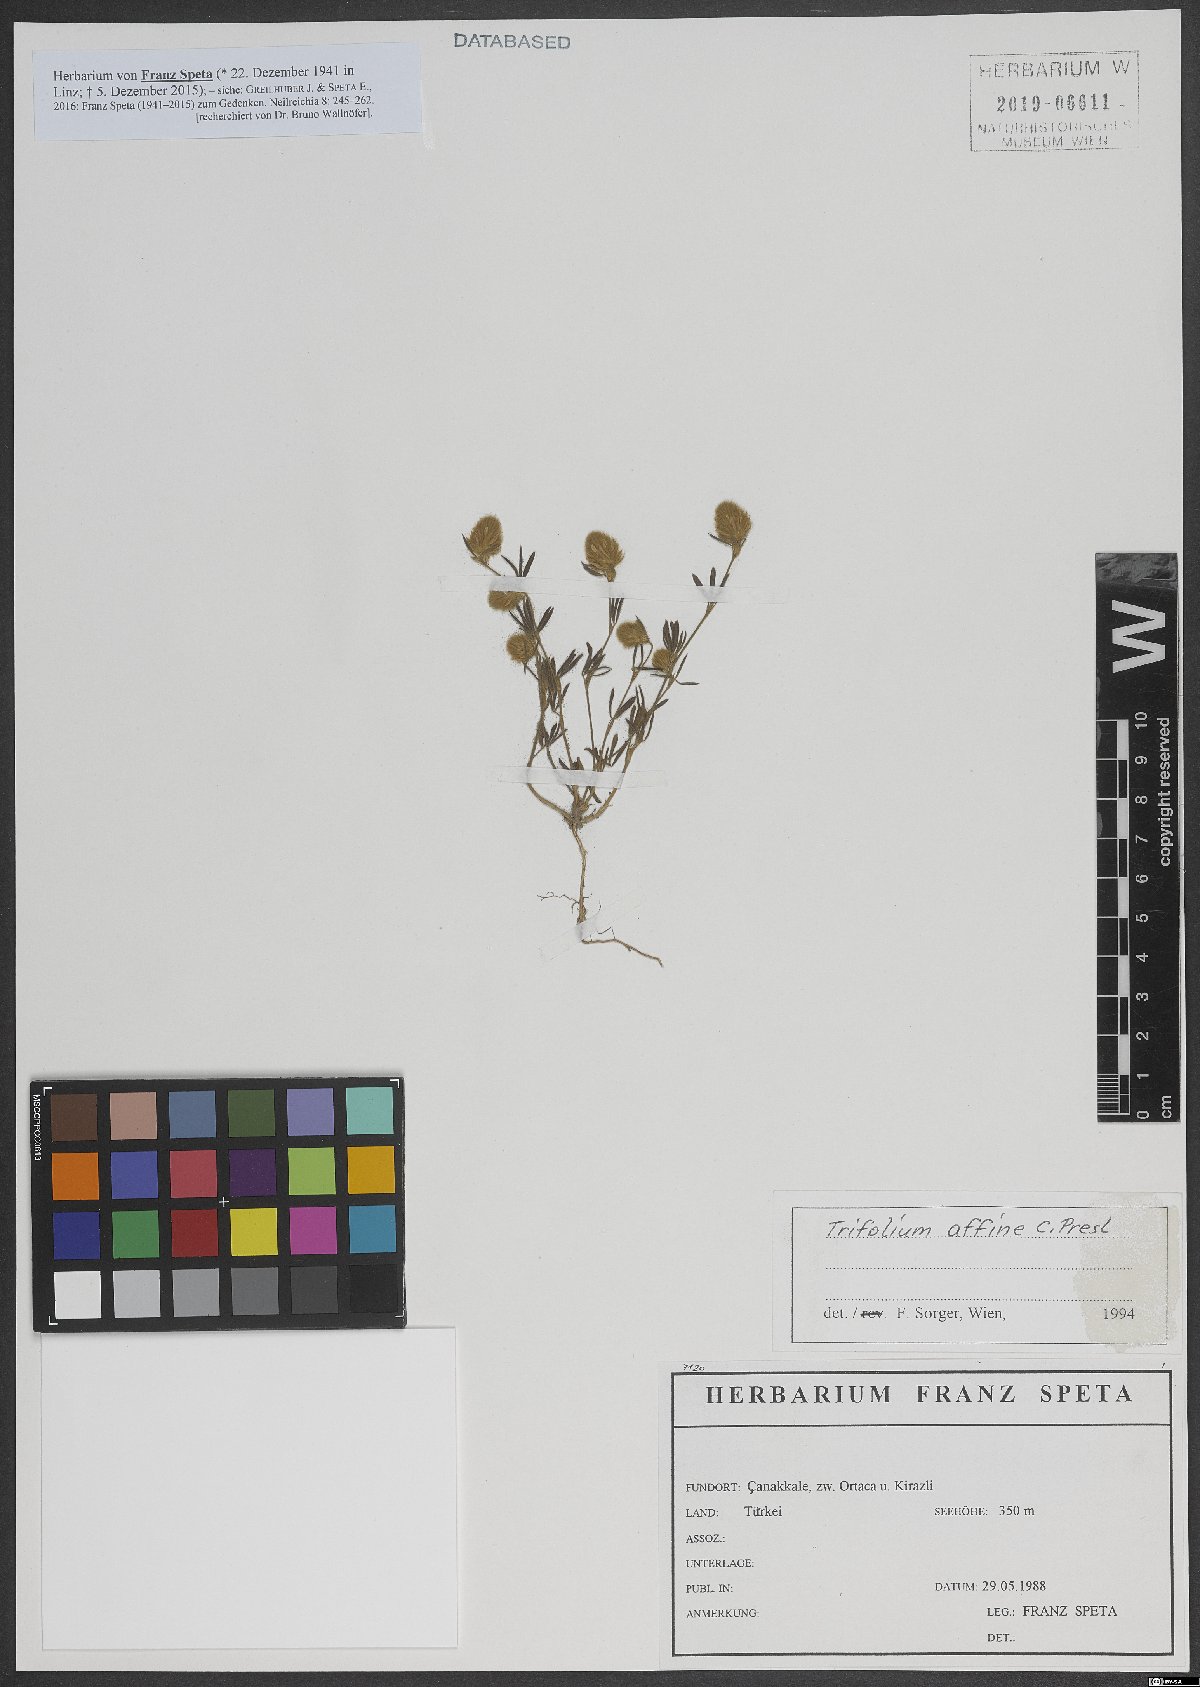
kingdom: Plantae
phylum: Tracheophyta
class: Magnoliopsida
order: Fabales
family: Fabaceae
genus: Trifolium
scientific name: Trifolium affine
